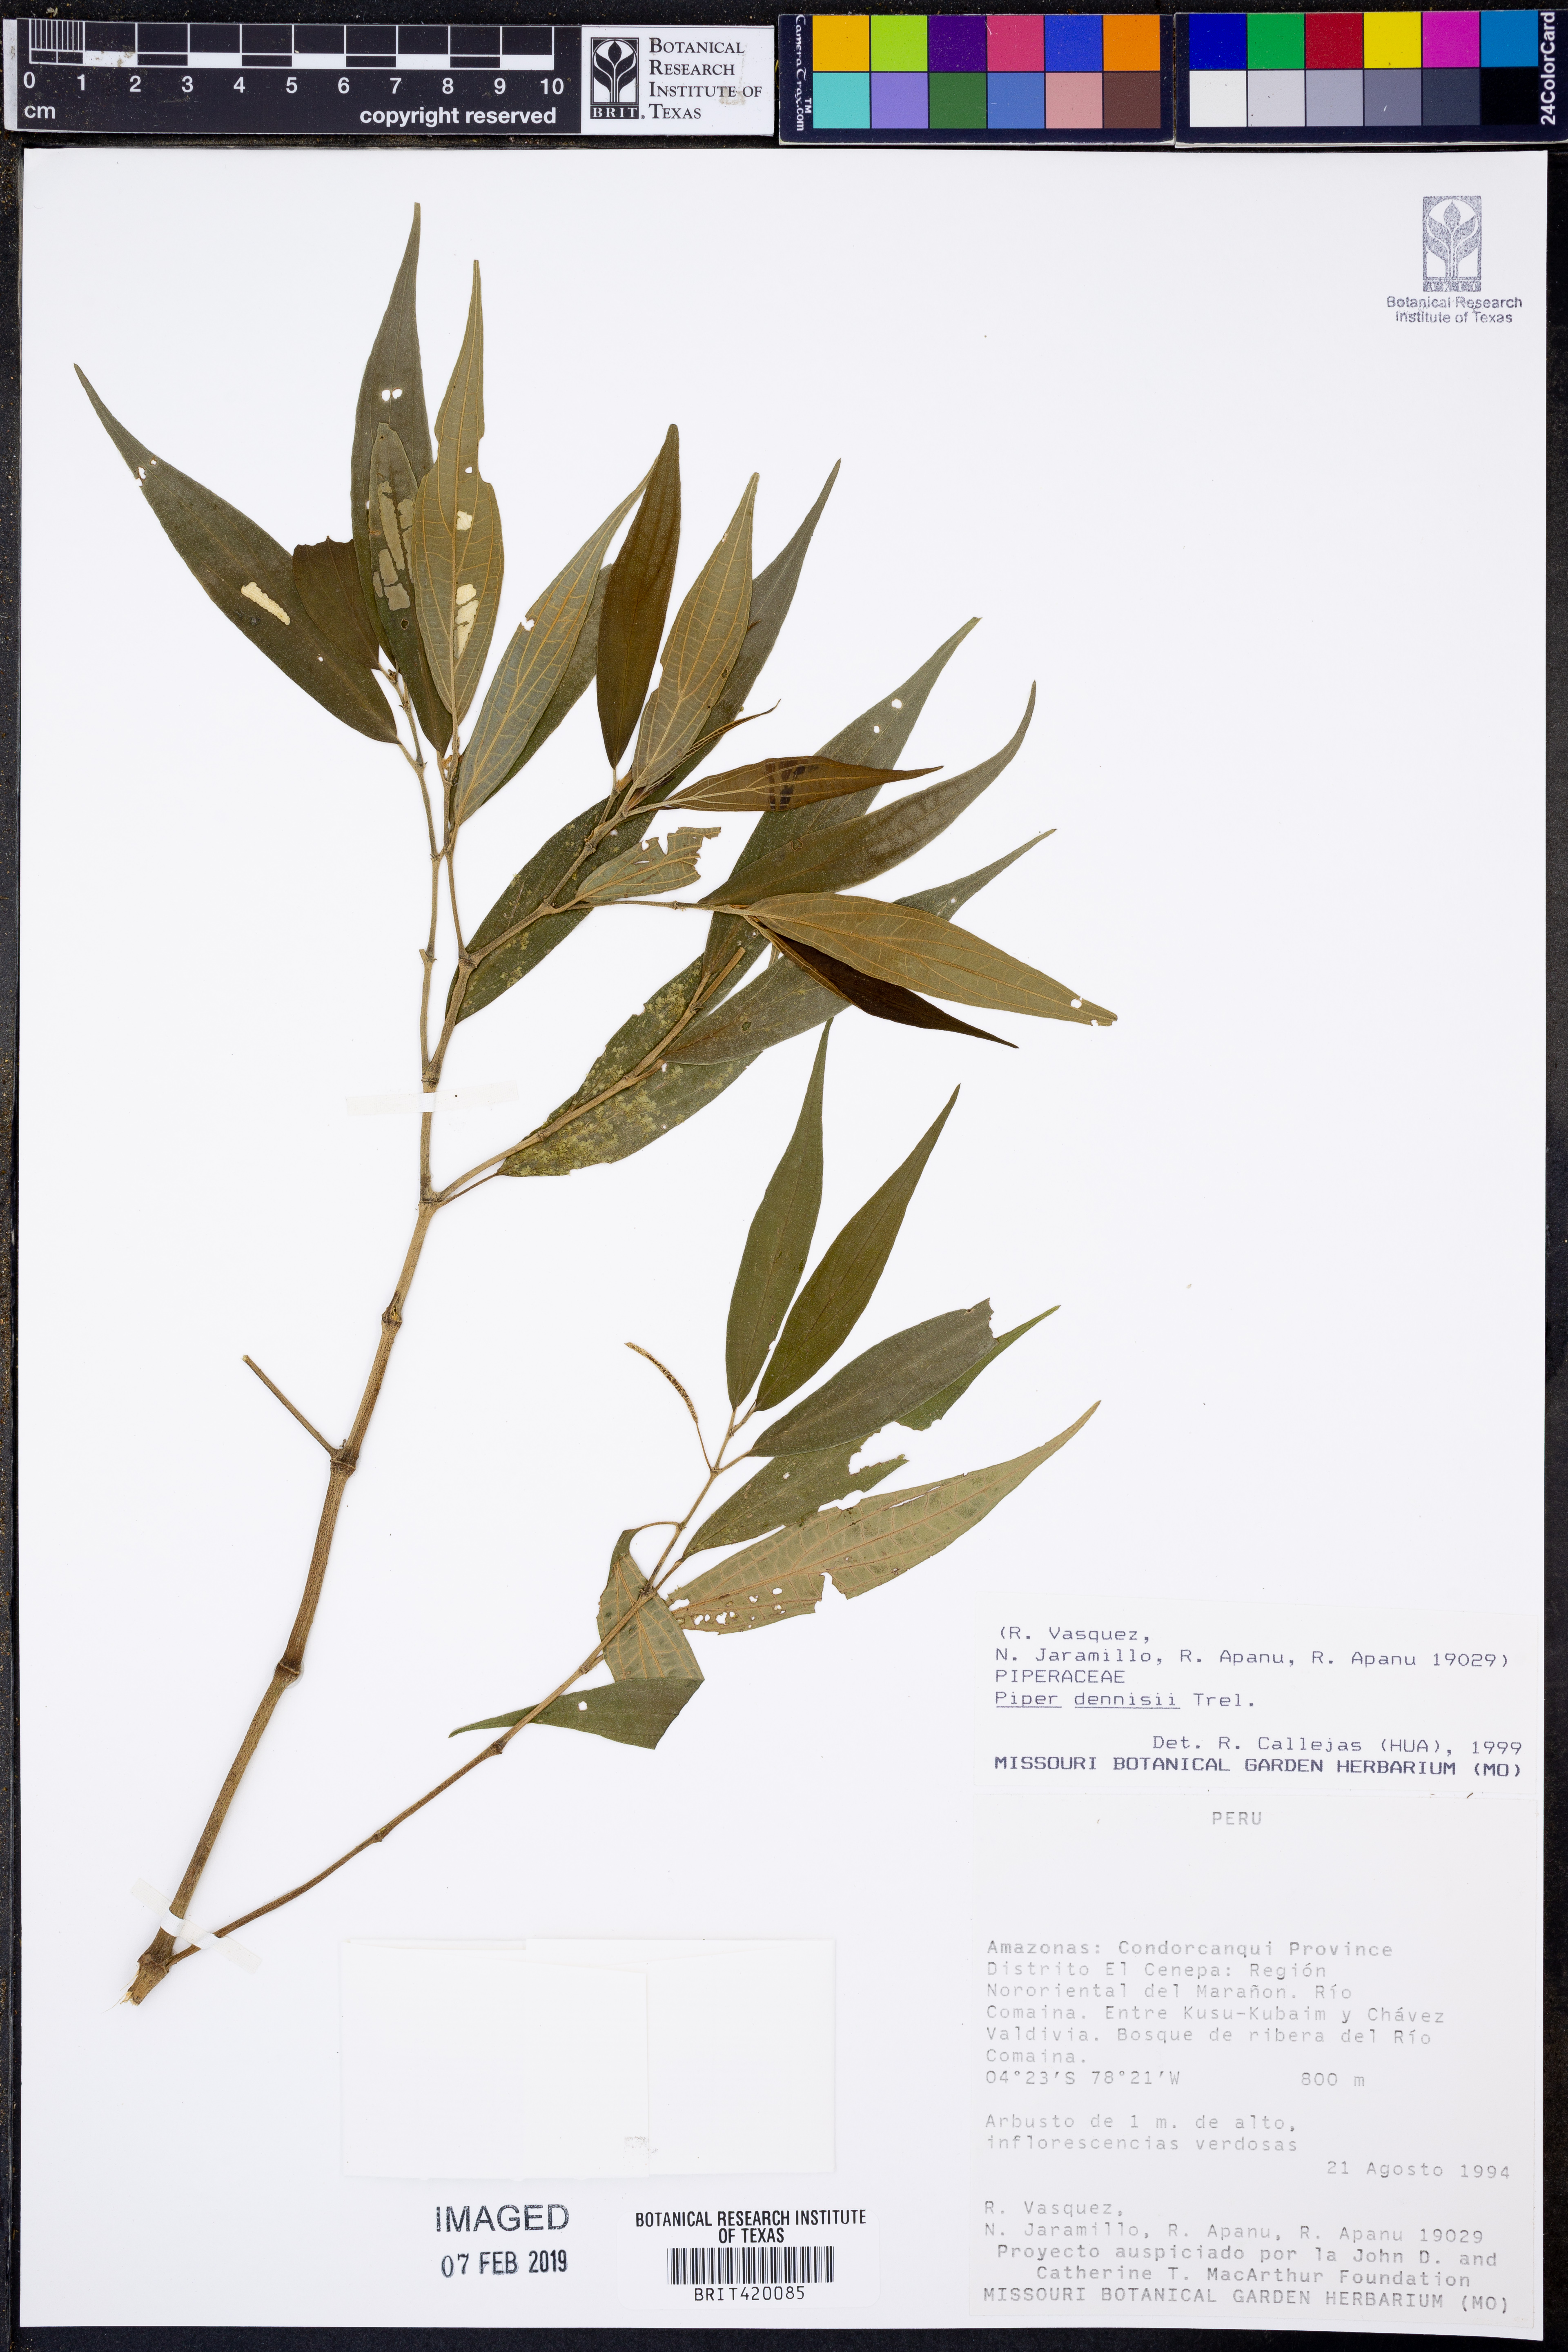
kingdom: Plantae
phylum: Tracheophyta
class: Magnoliopsida
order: Piperales
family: Piperaceae
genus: Piper
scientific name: Piper dennisii
